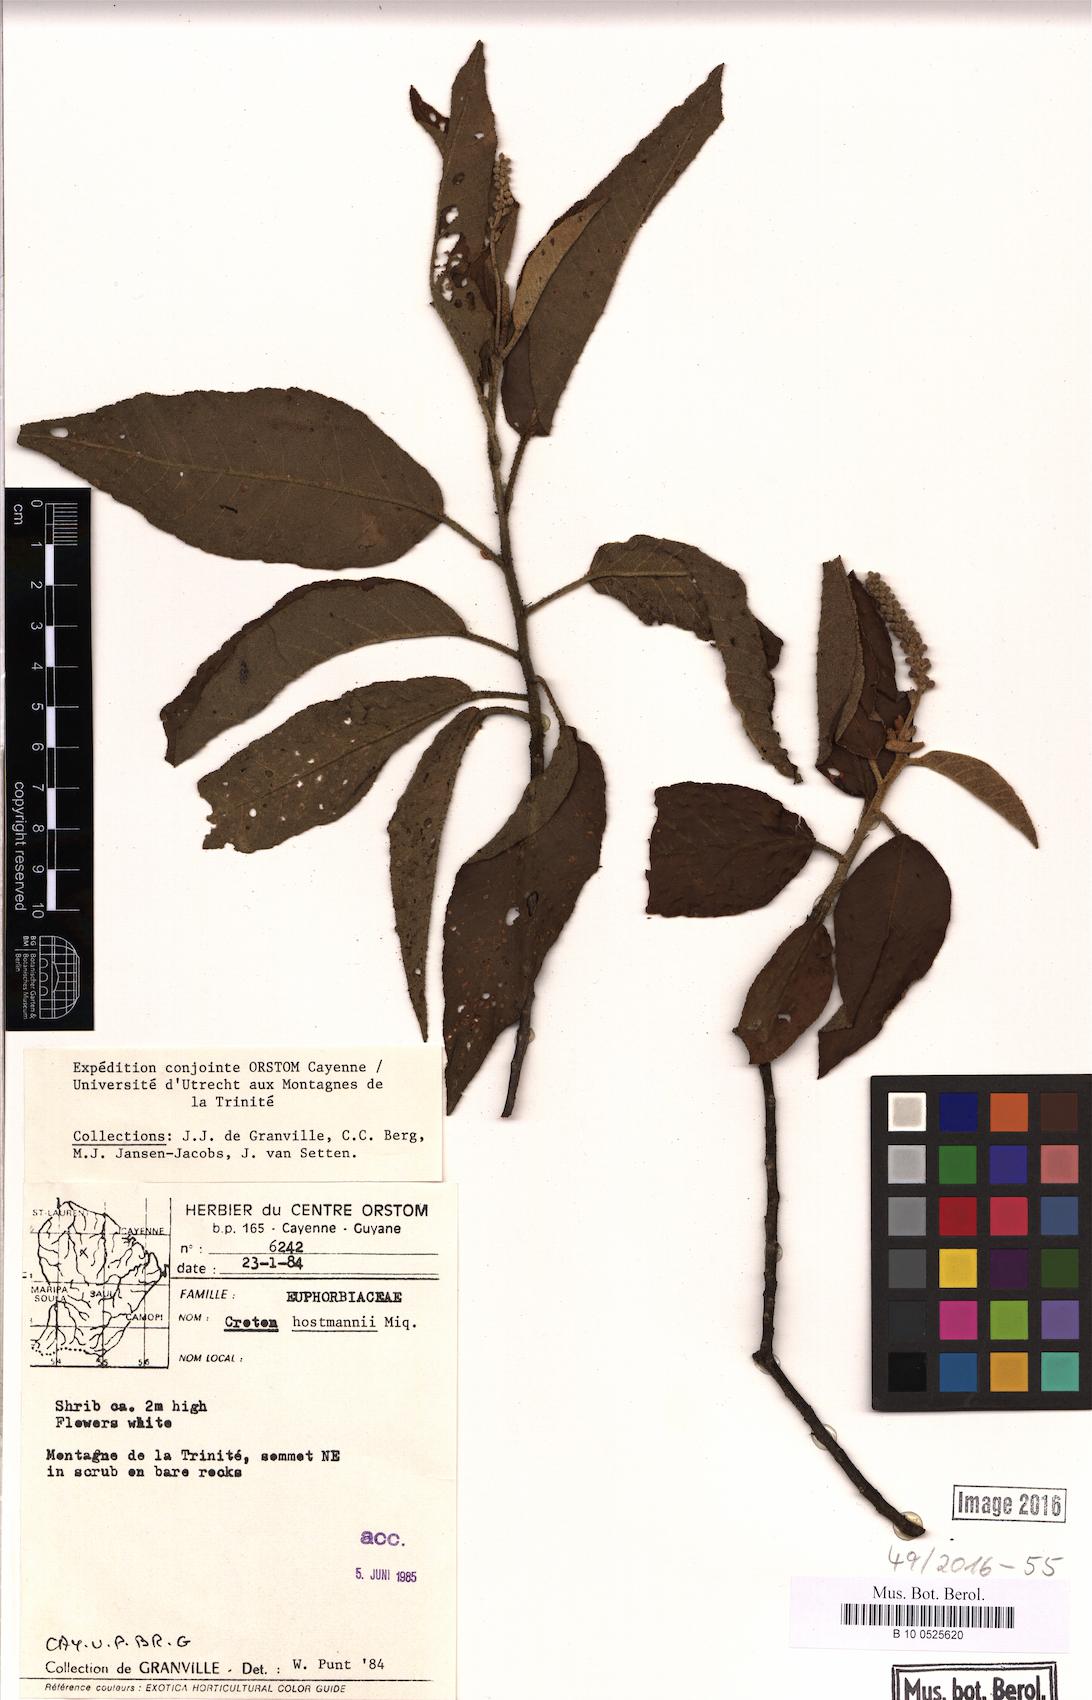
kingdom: Plantae
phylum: Tracheophyta
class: Magnoliopsida
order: Malpighiales
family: Euphorbiaceae
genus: Croton
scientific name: Croton hostmannii
